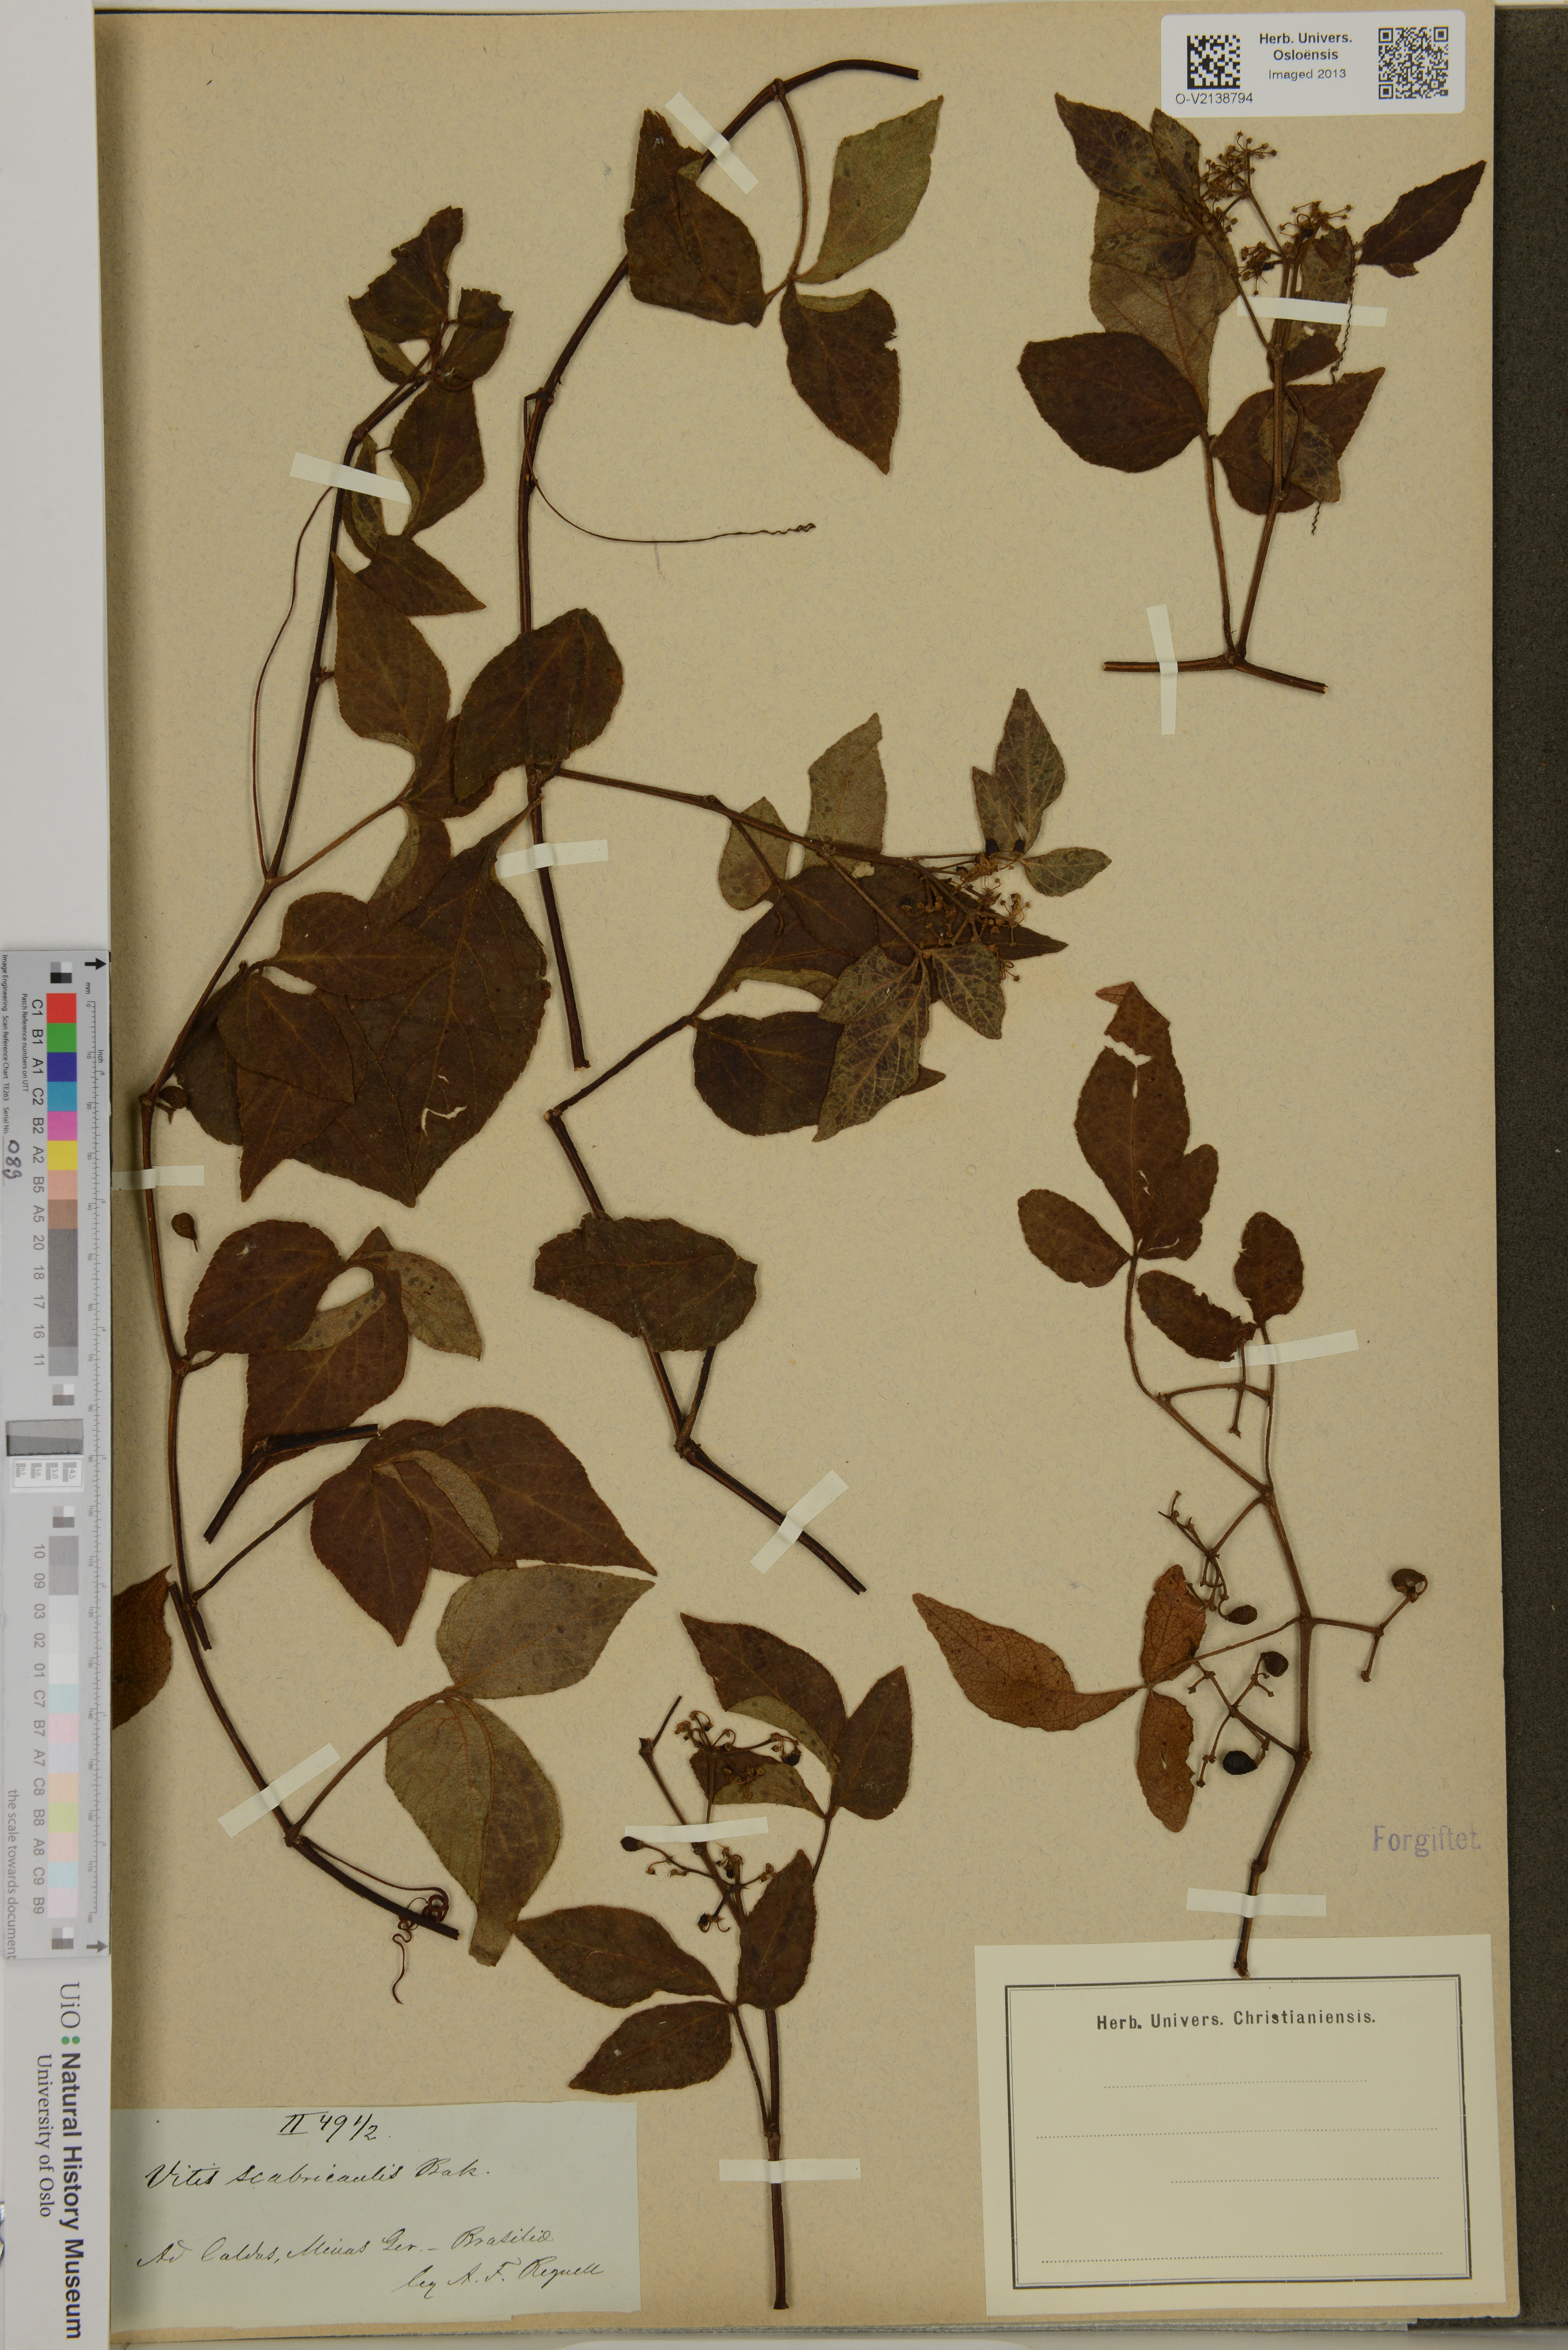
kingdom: Plantae
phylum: Tracheophyta
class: Magnoliopsida
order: Vitales
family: Vitaceae
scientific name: Vitaceae
